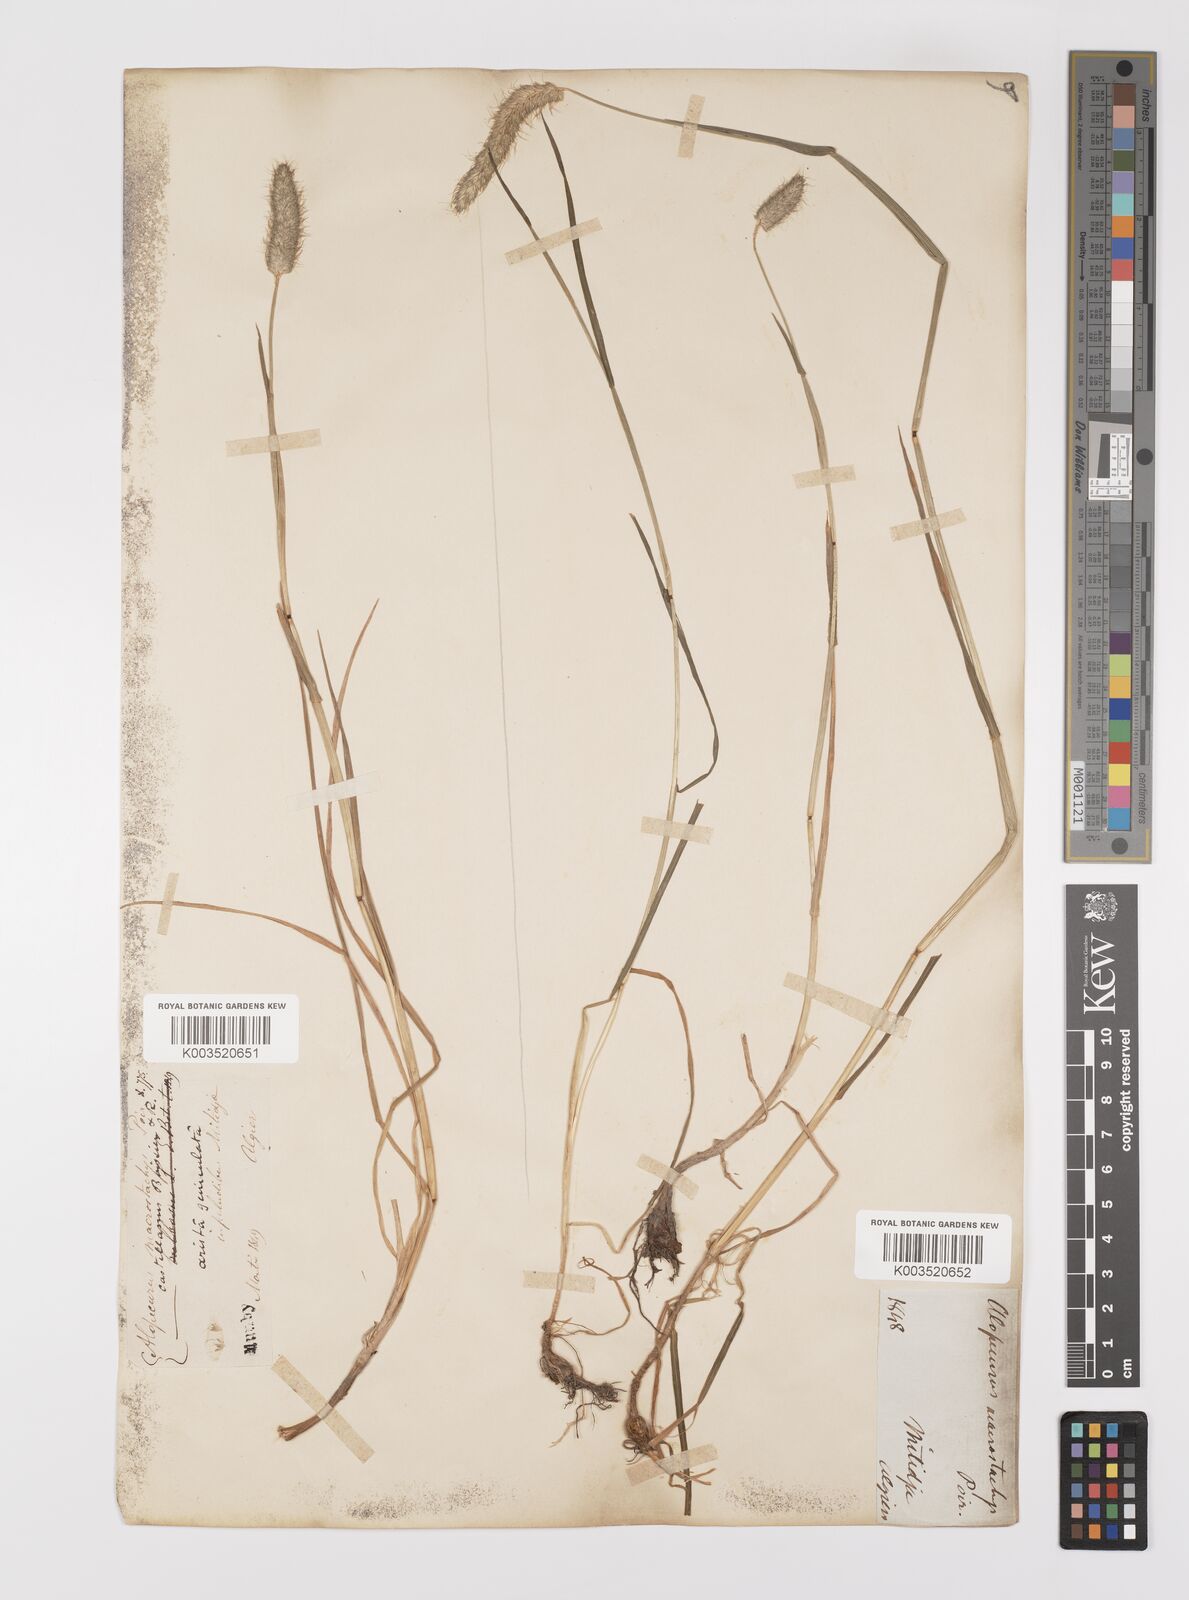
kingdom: Plantae
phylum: Tracheophyta
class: Liliopsida
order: Poales
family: Poaceae
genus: Alopecurus
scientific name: Alopecurus bulbosus
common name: Bulbous foxtail
